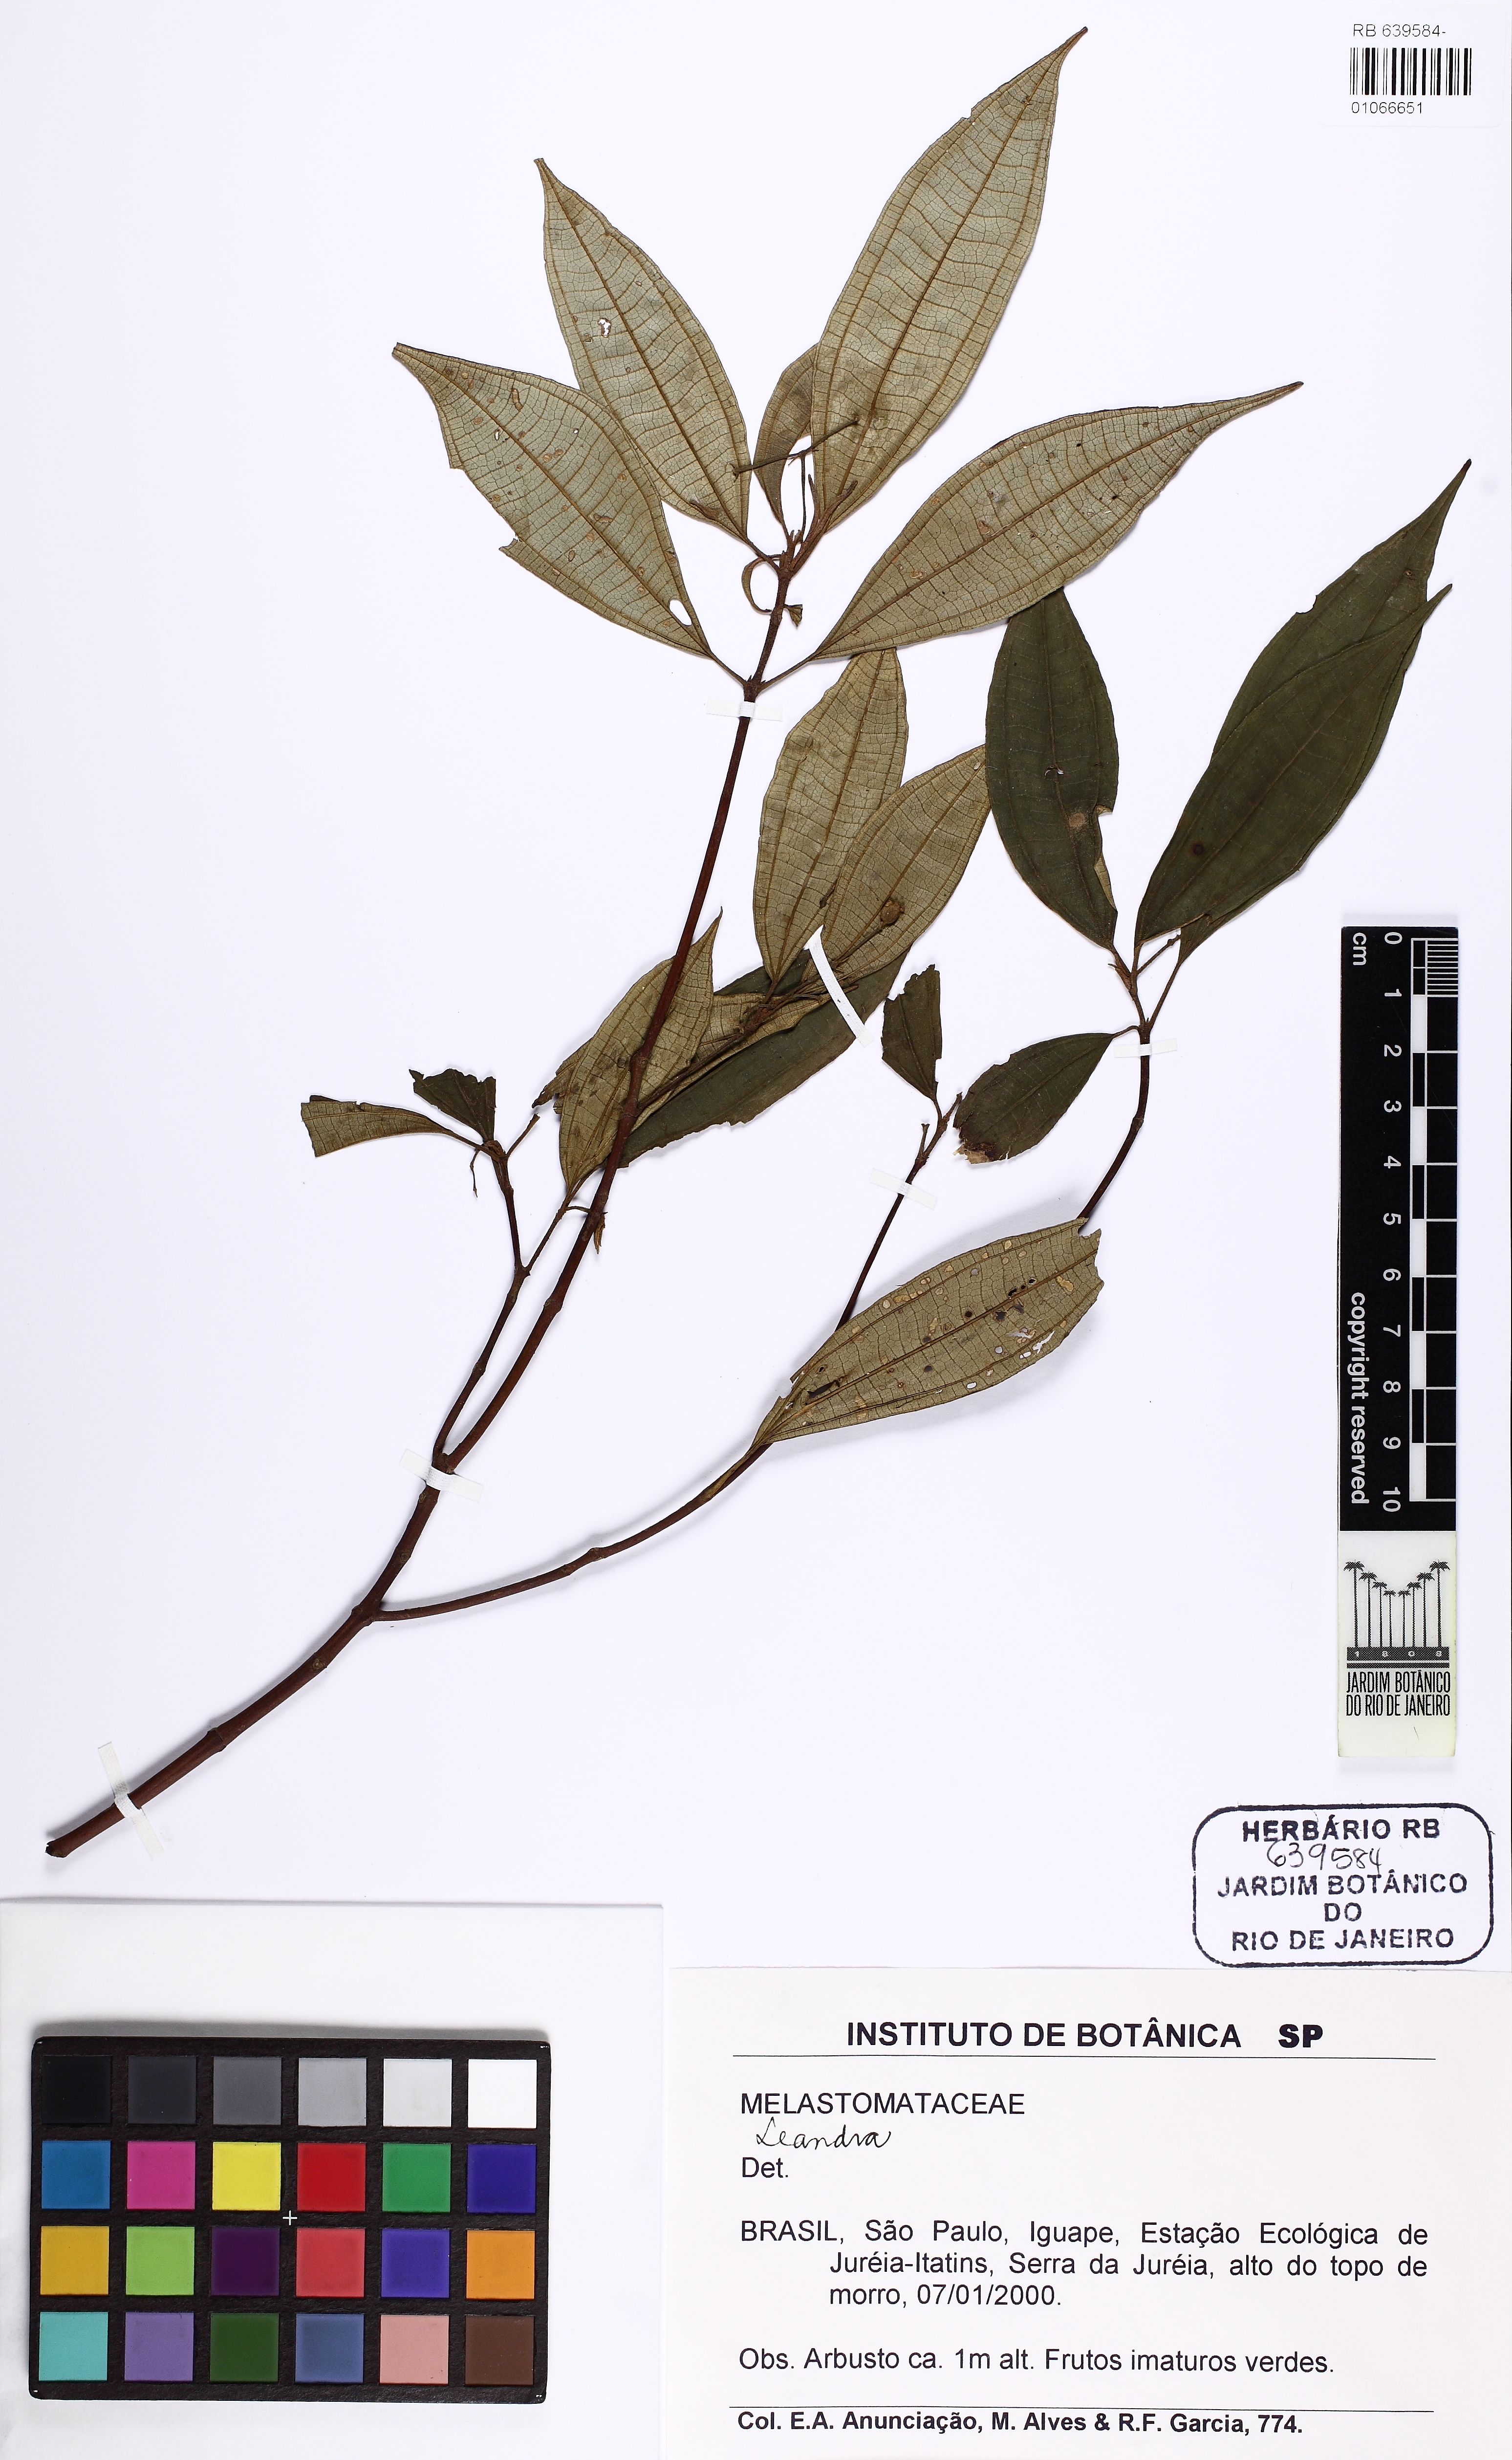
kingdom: Plantae
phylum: Tracheophyta
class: Magnoliopsida
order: Myrtales
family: Melastomataceae
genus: Miconia
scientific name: Miconia
